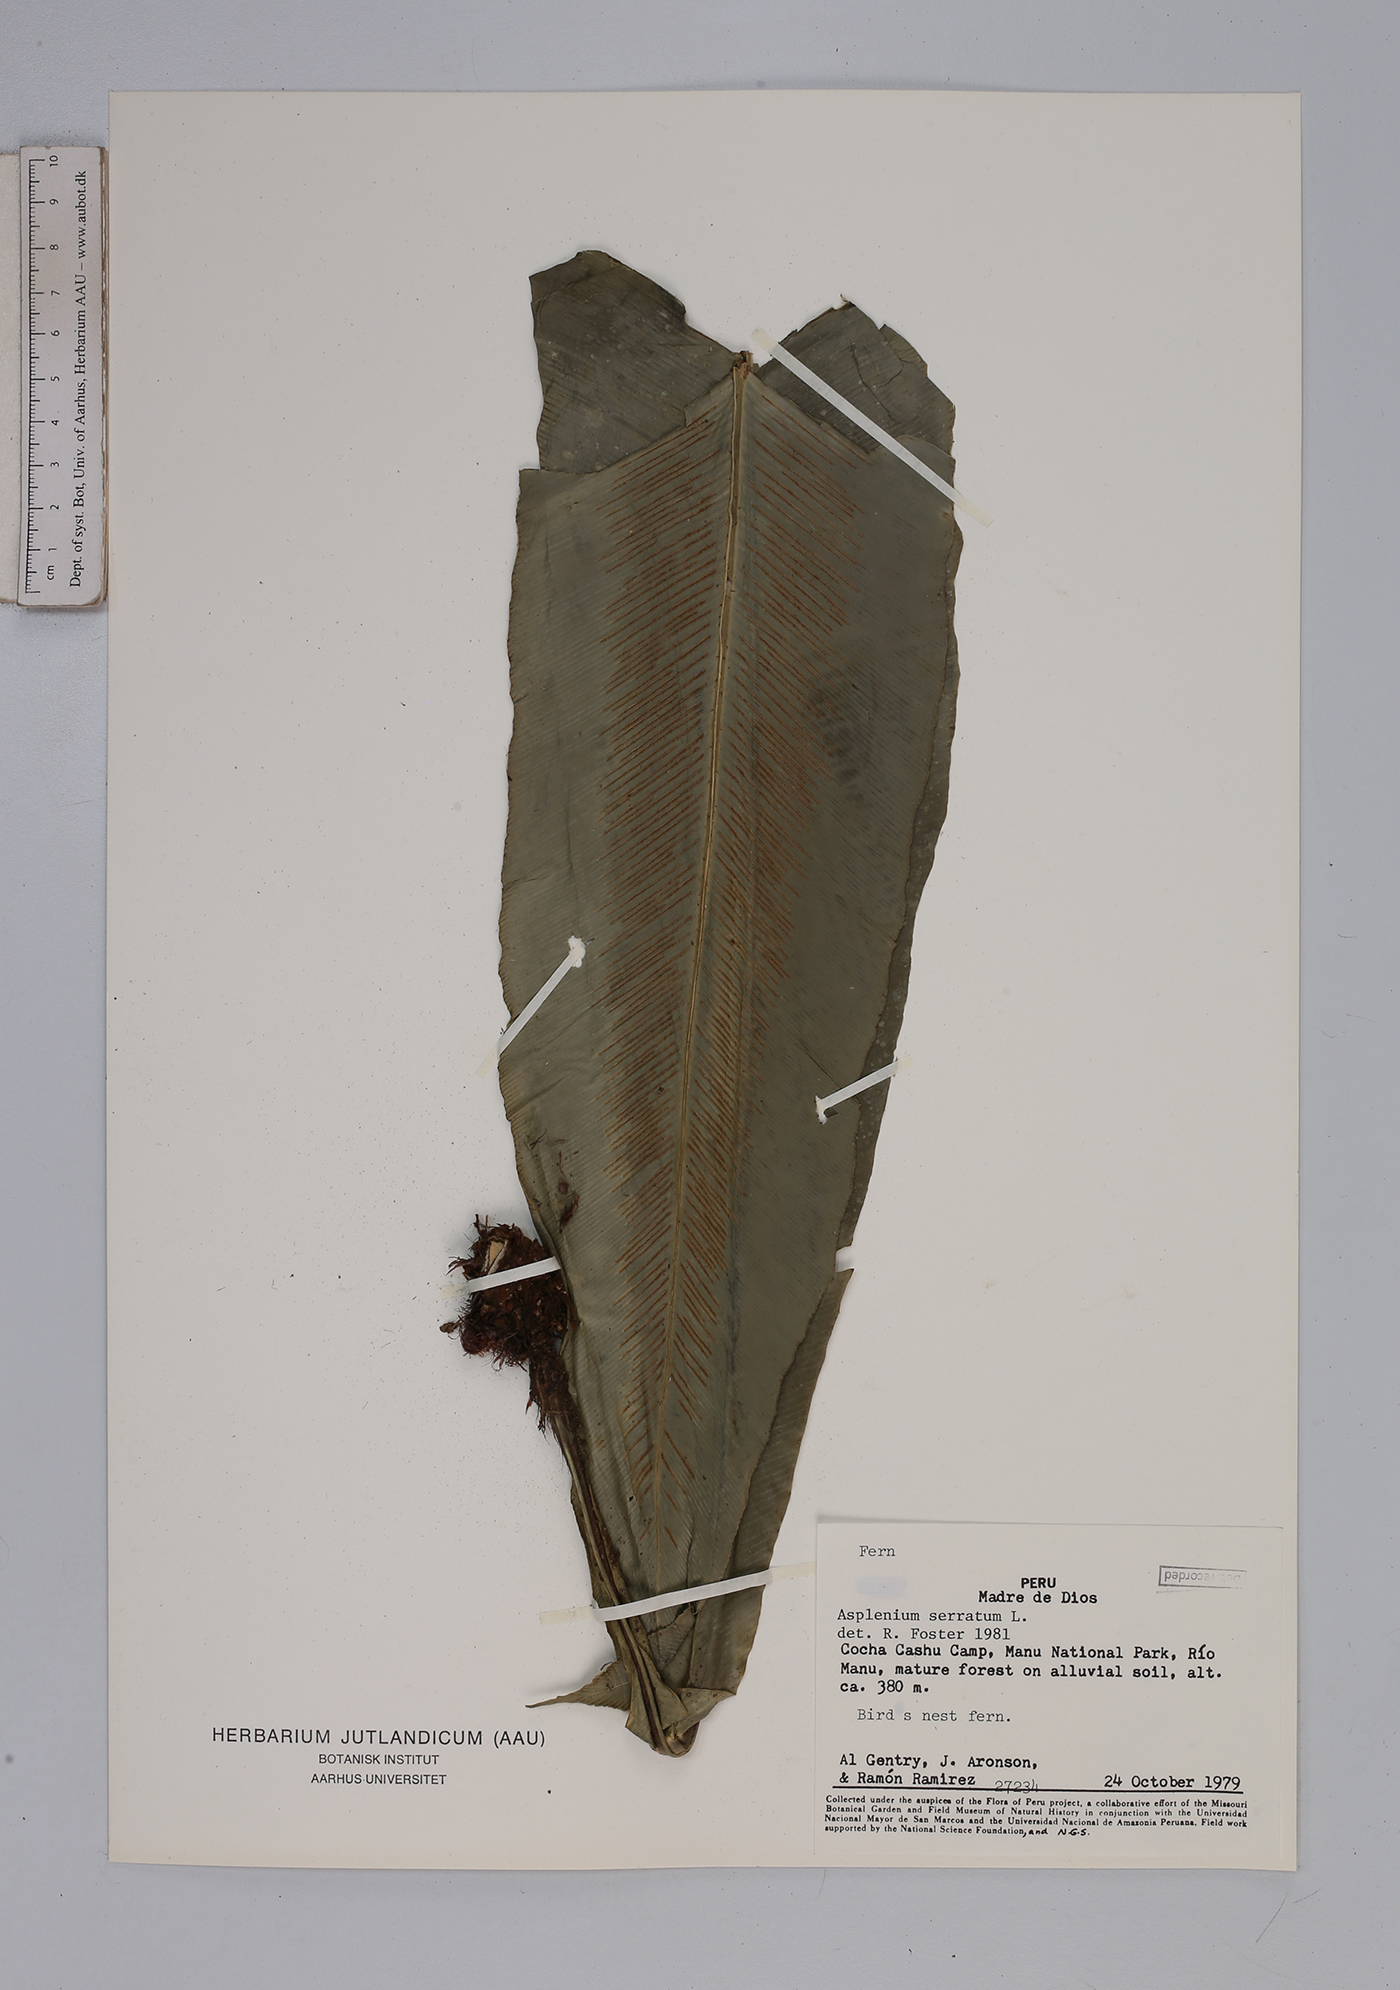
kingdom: Plantae
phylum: Tracheophyta
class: Polypodiopsida
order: Polypodiales
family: Aspleniaceae
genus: Asplenium
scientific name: Asplenium serratum
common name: Wild birdnest fern
